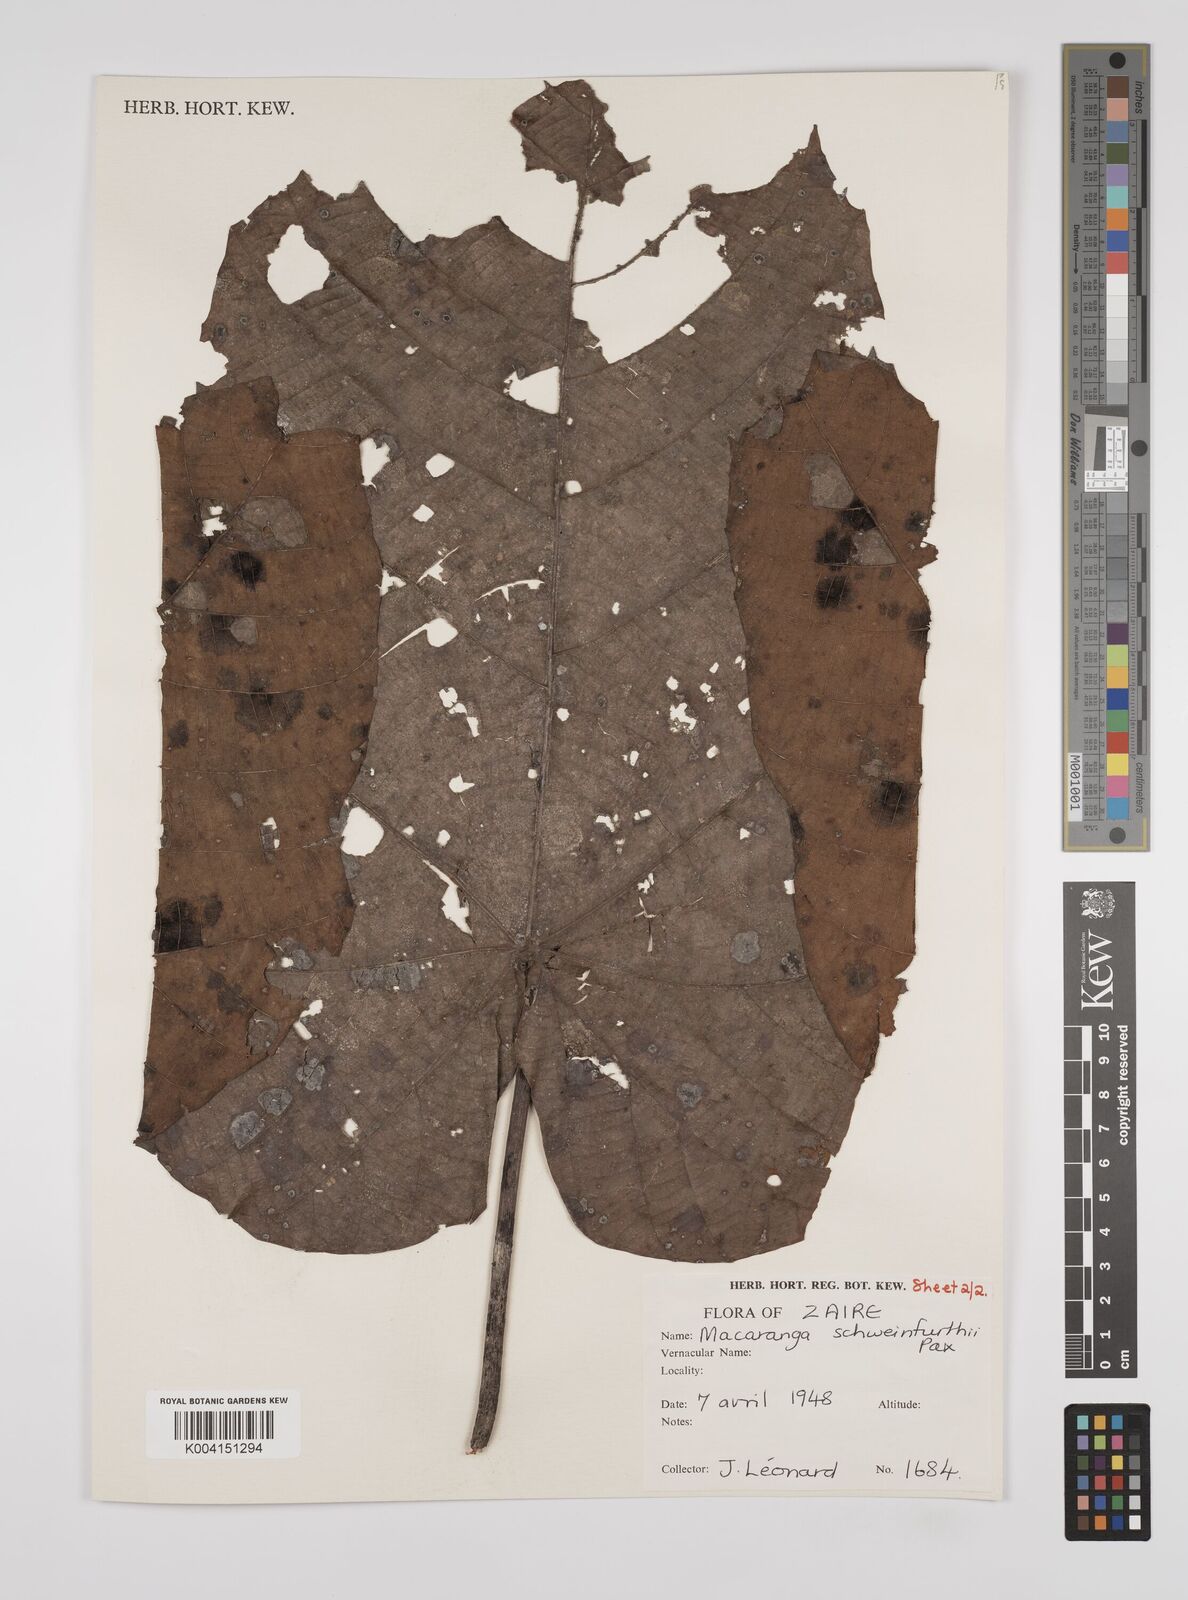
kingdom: Plantae
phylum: Tracheophyta
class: Magnoliopsida
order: Malpighiales
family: Euphorbiaceae
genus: Macaranga
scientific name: Macaranga schweinfurthii
